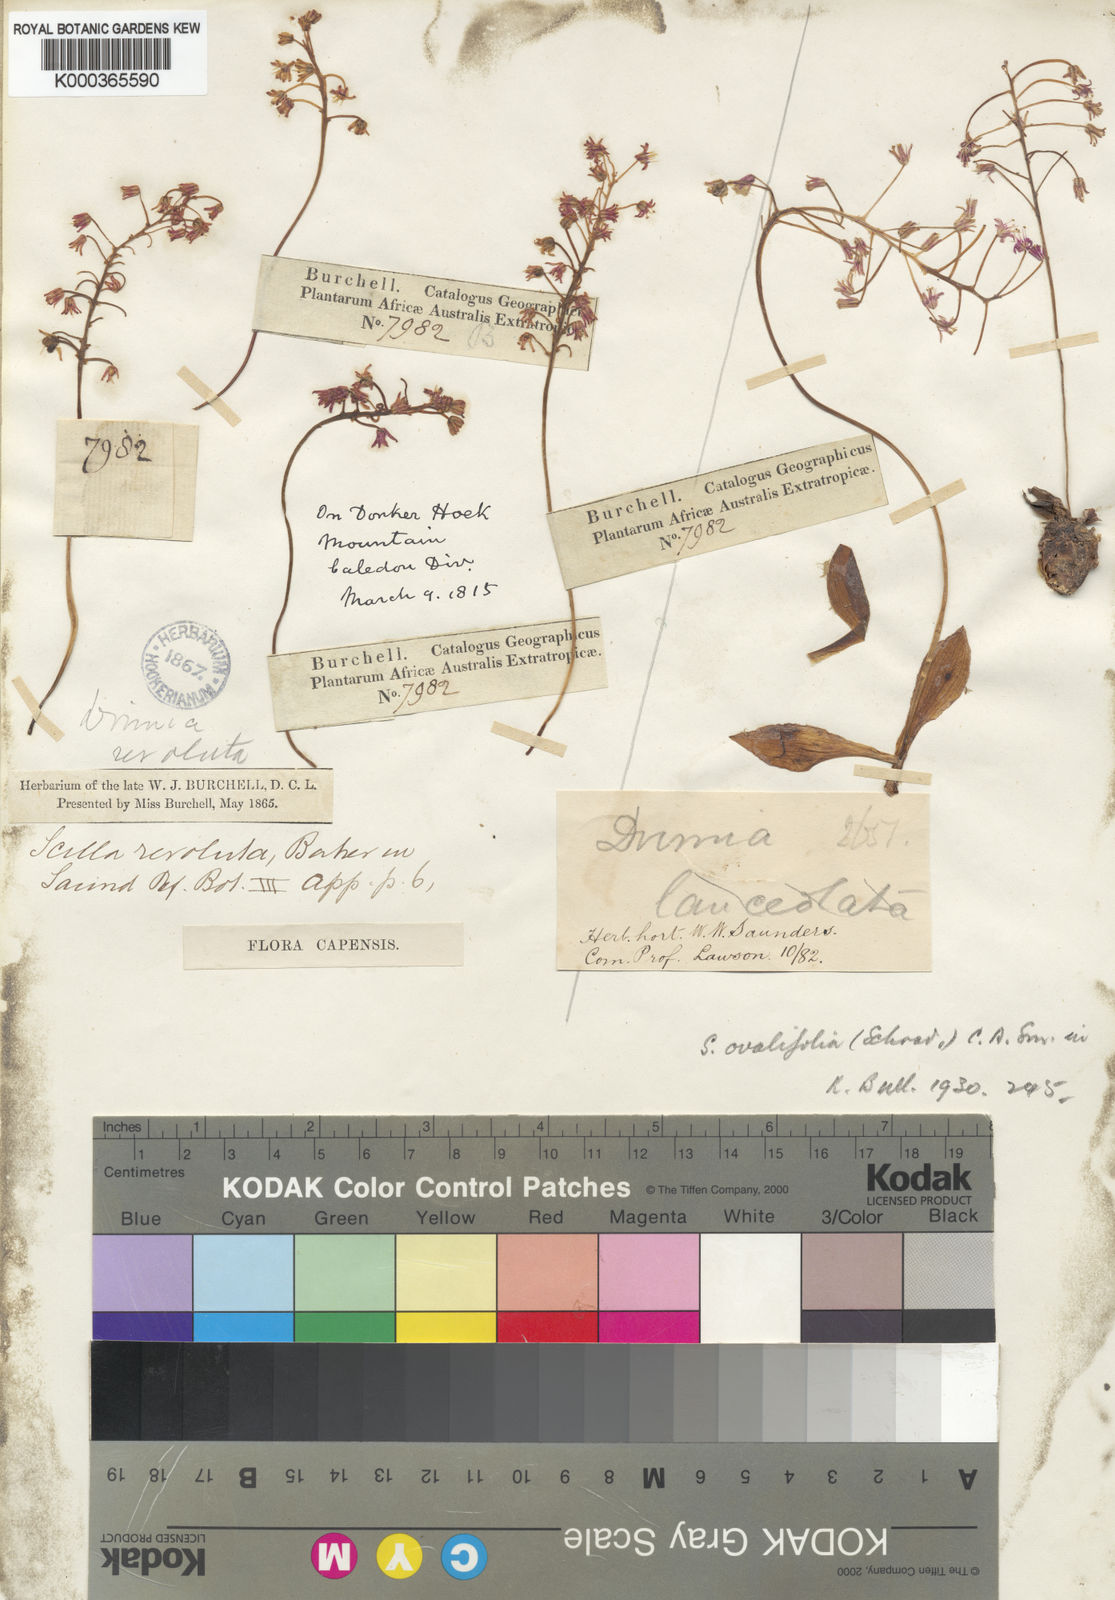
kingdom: Plantae
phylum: Tracheophyta
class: Liliopsida
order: Asparagales
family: Asparagaceae
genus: Ledebouria
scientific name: Ledebouria ovalifolia
